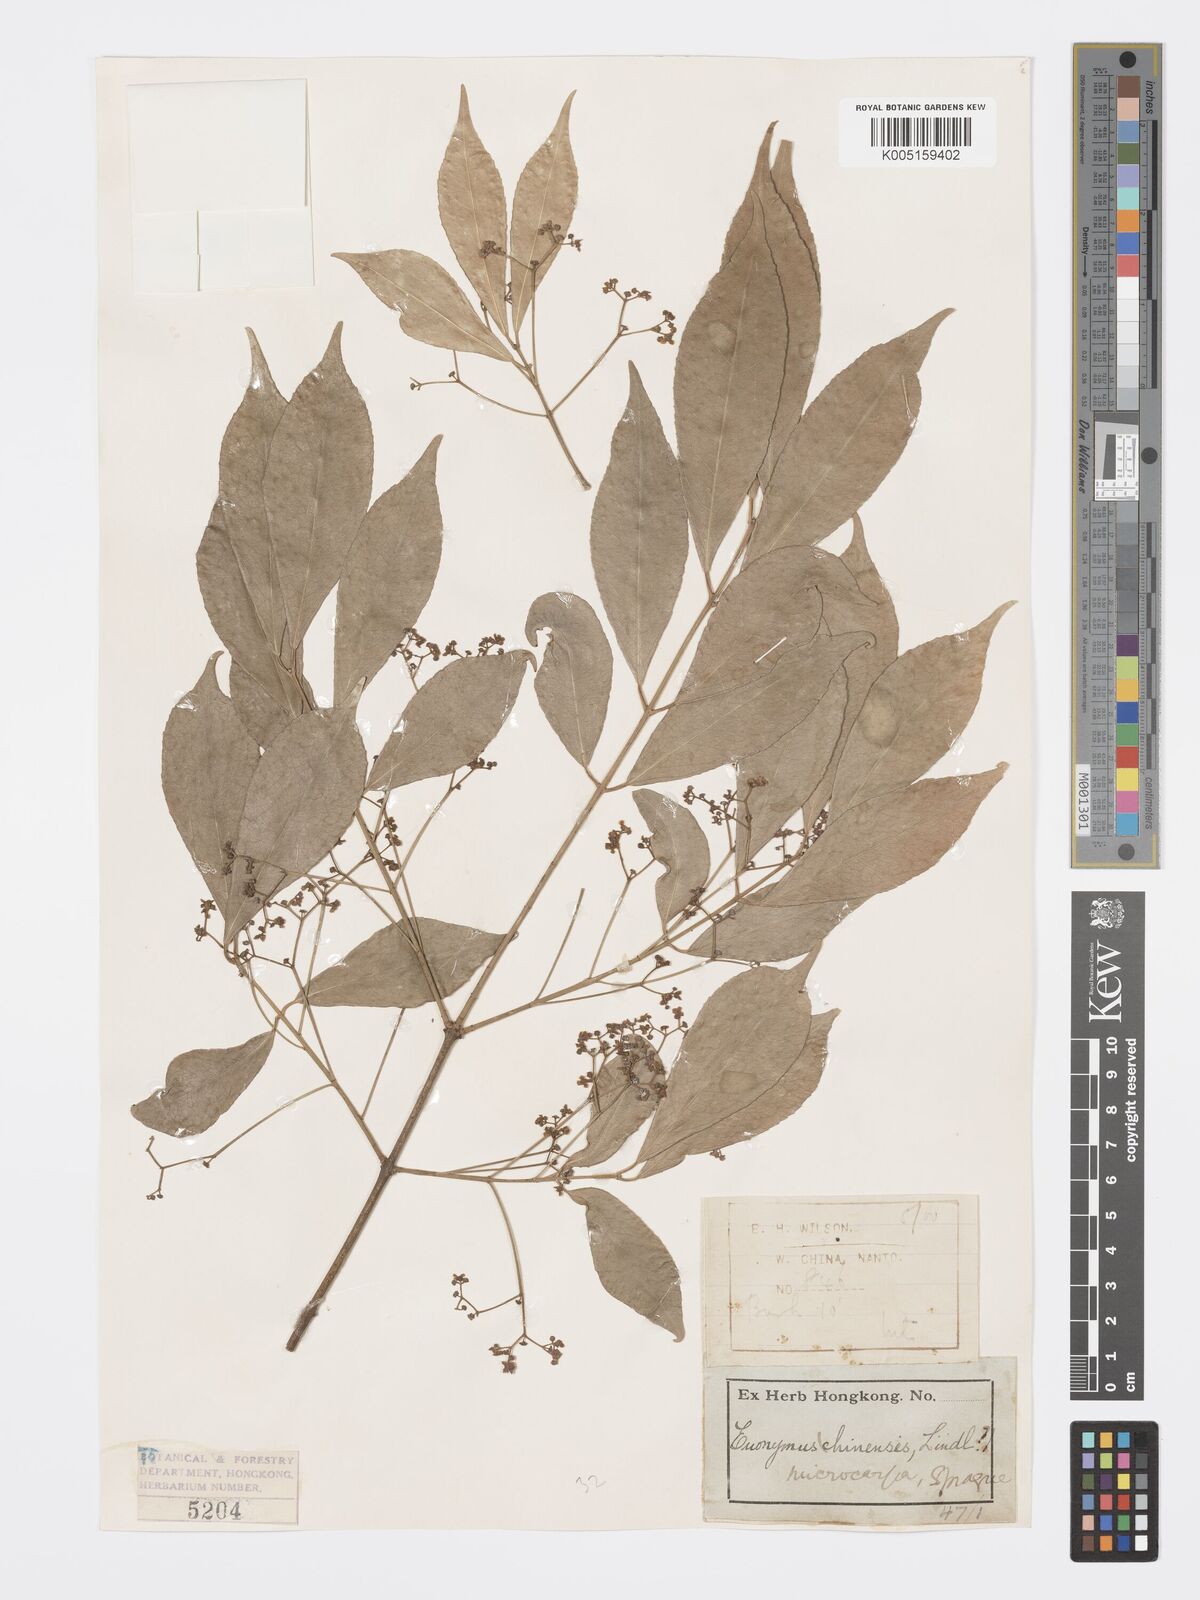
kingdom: Plantae
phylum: Tracheophyta
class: Magnoliopsida
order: Celastrales
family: Celastraceae
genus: Euonymus
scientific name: Euonymus
